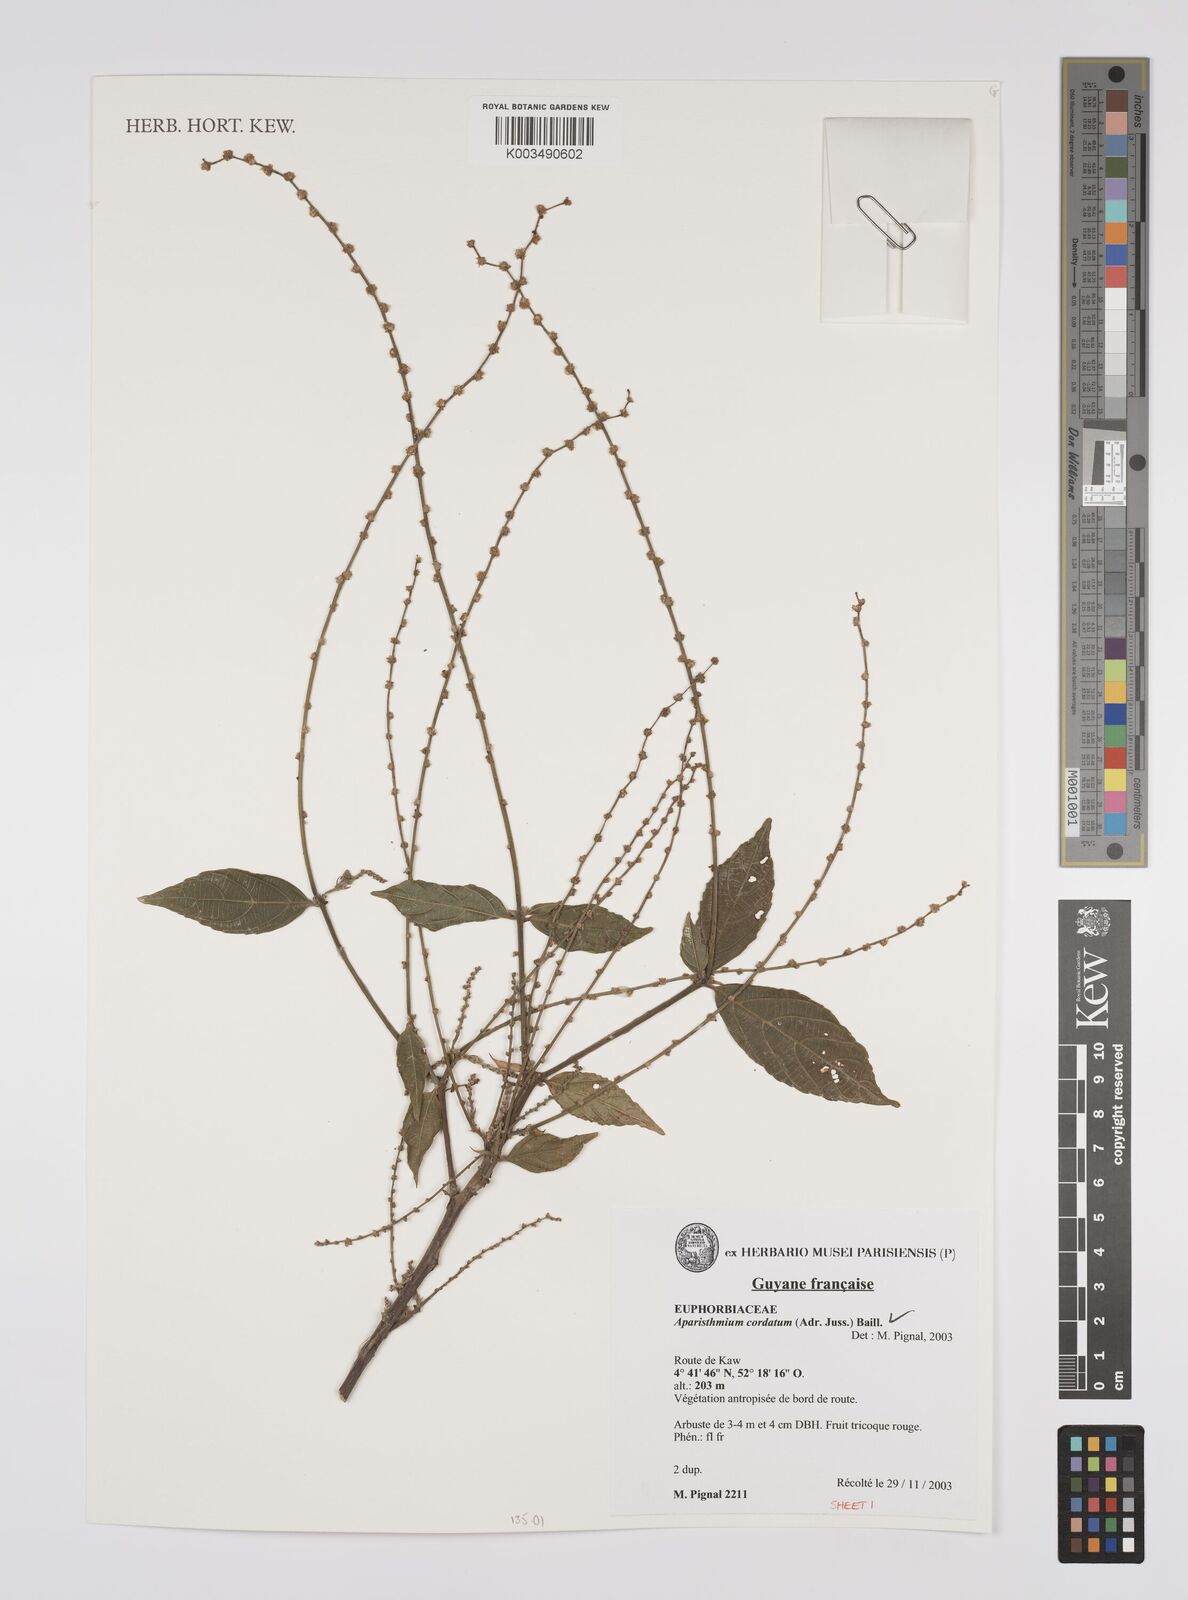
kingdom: Plantae
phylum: Tracheophyta
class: Magnoliopsida
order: Malpighiales
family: Euphorbiaceae
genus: Aparisthmium
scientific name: Aparisthmium cordatum
